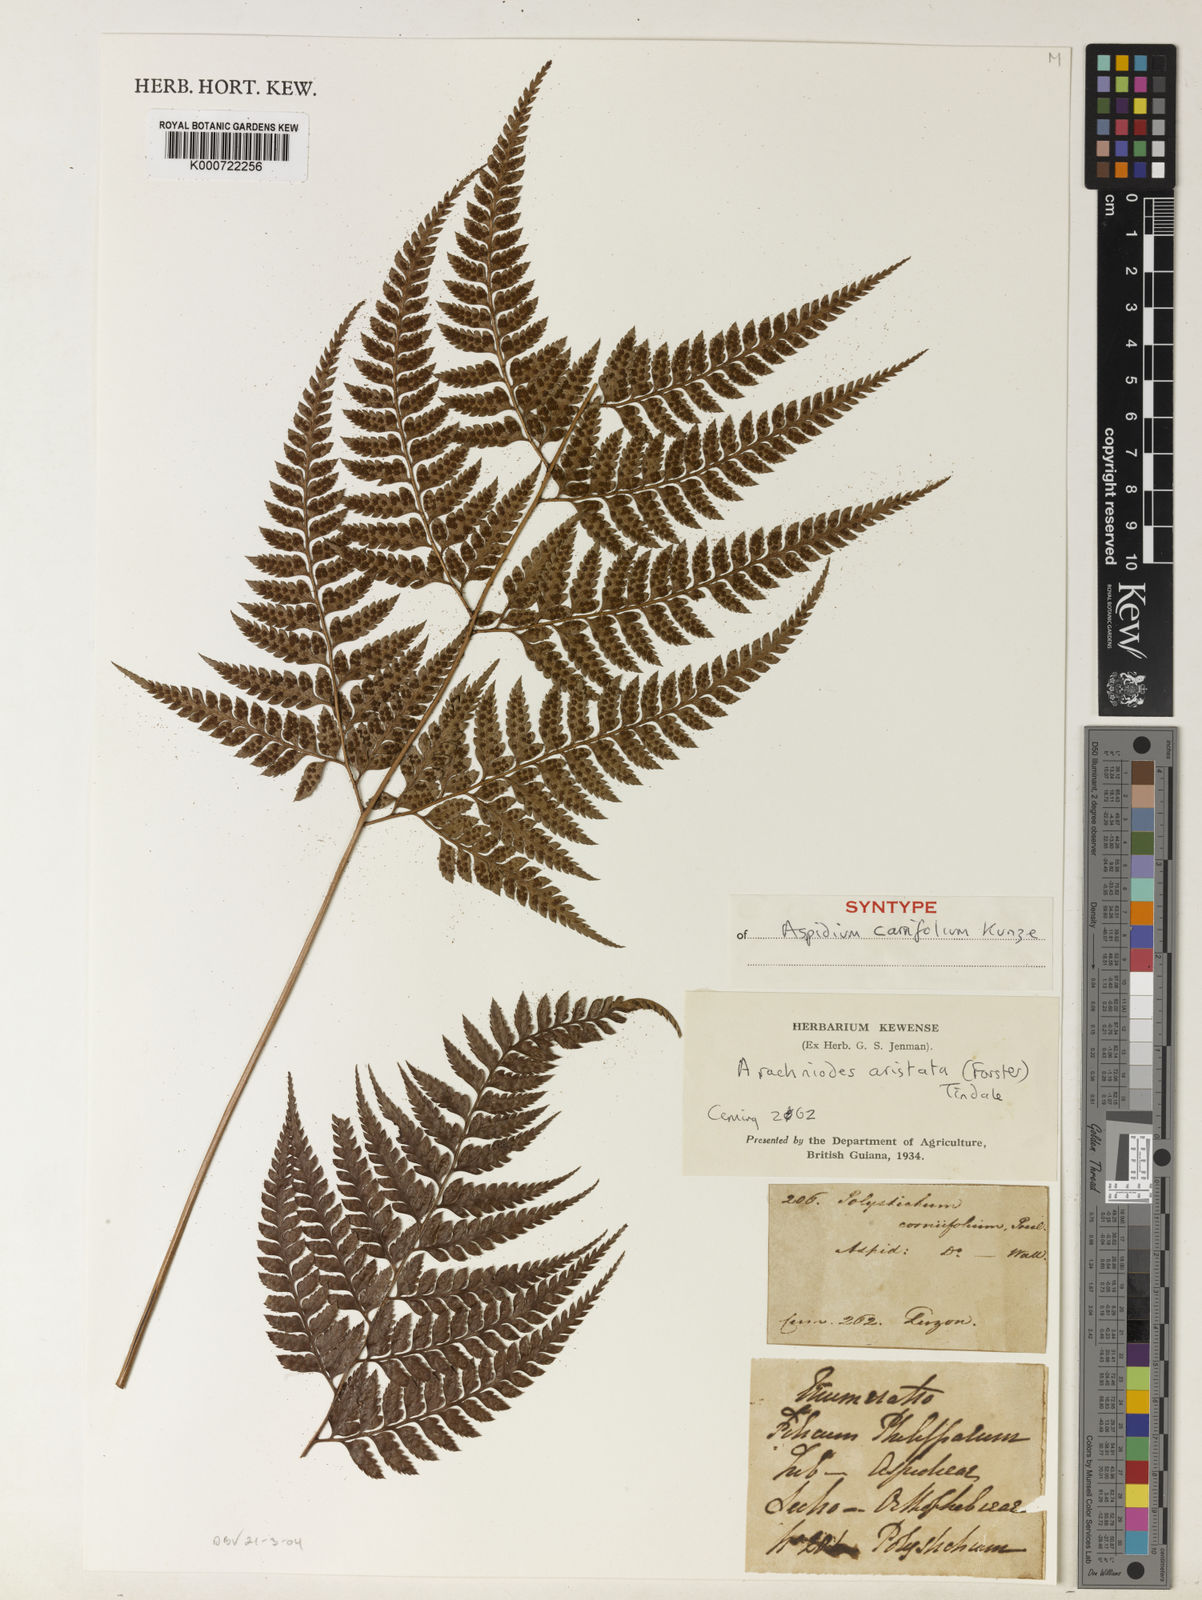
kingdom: Plantae
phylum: Tracheophyta
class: Polypodiopsida
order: Polypodiales
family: Dryopteridaceae
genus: Arachniodes
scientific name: Arachniodes aristata
